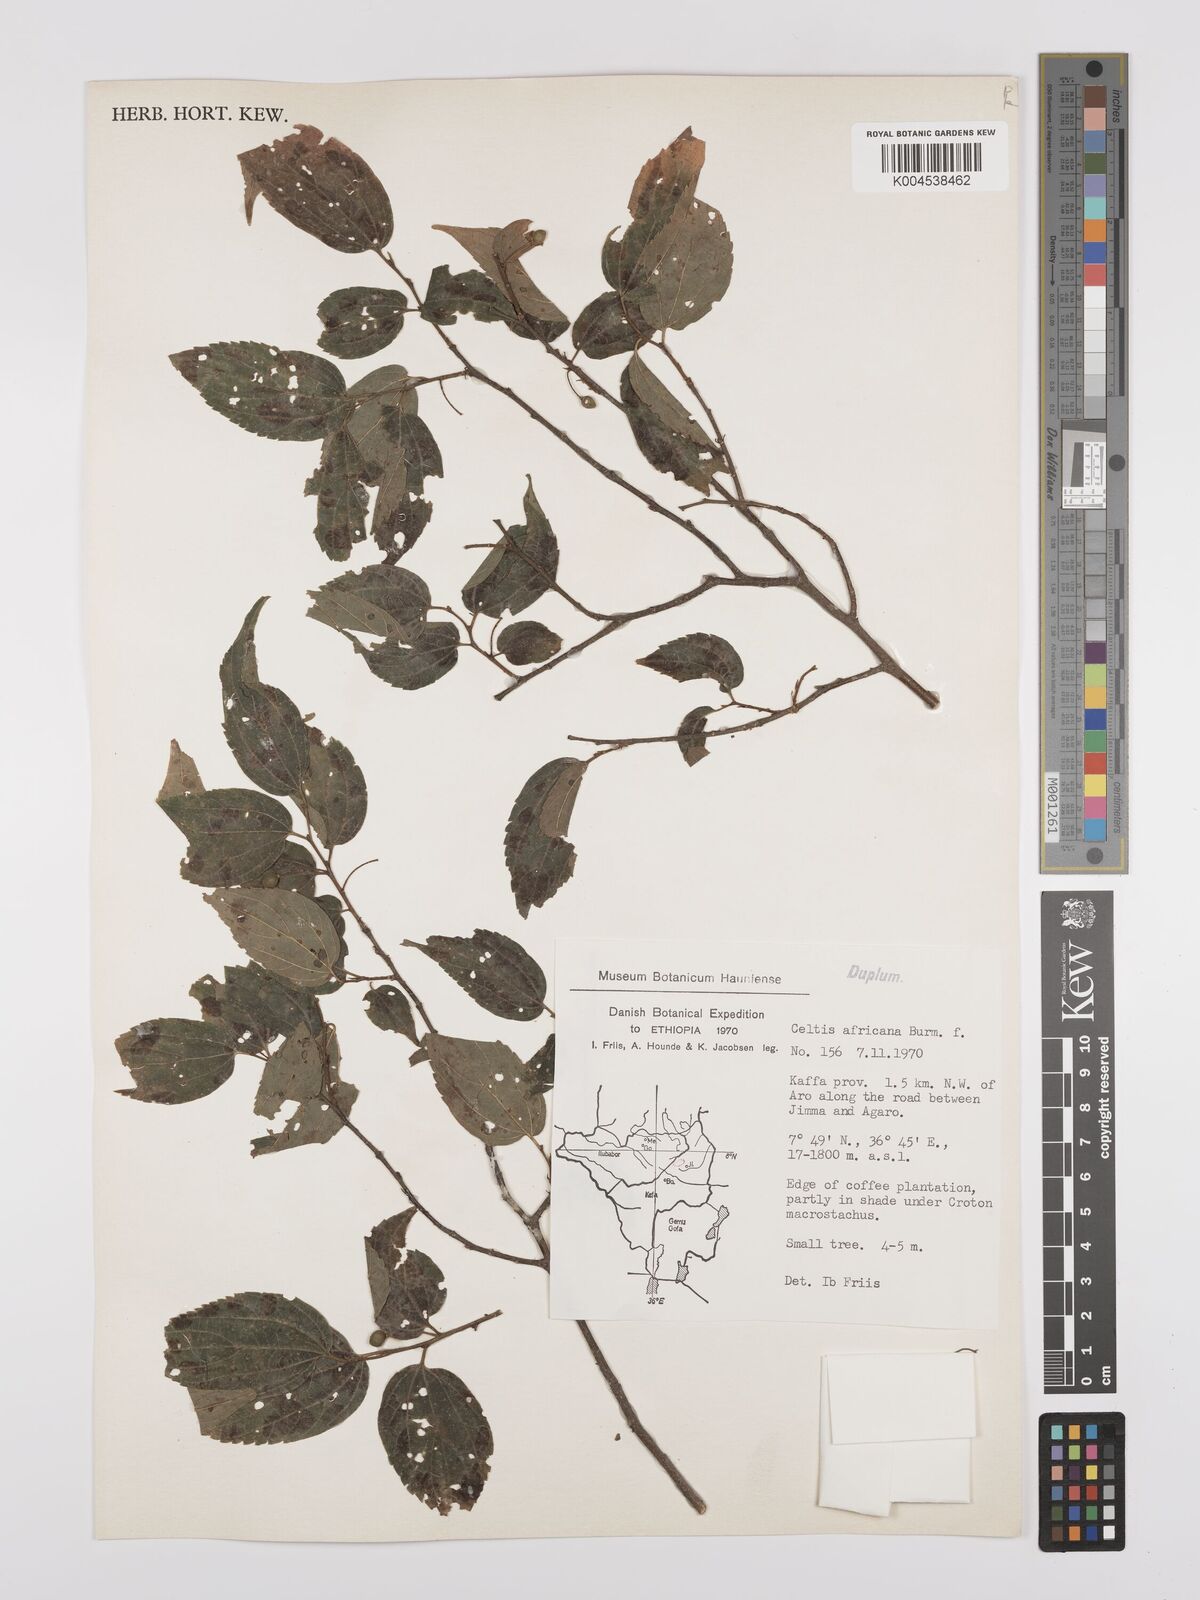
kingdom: Plantae
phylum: Tracheophyta
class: Magnoliopsida
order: Rosales
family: Cannabaceae
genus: Celtis
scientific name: Celtis africana
